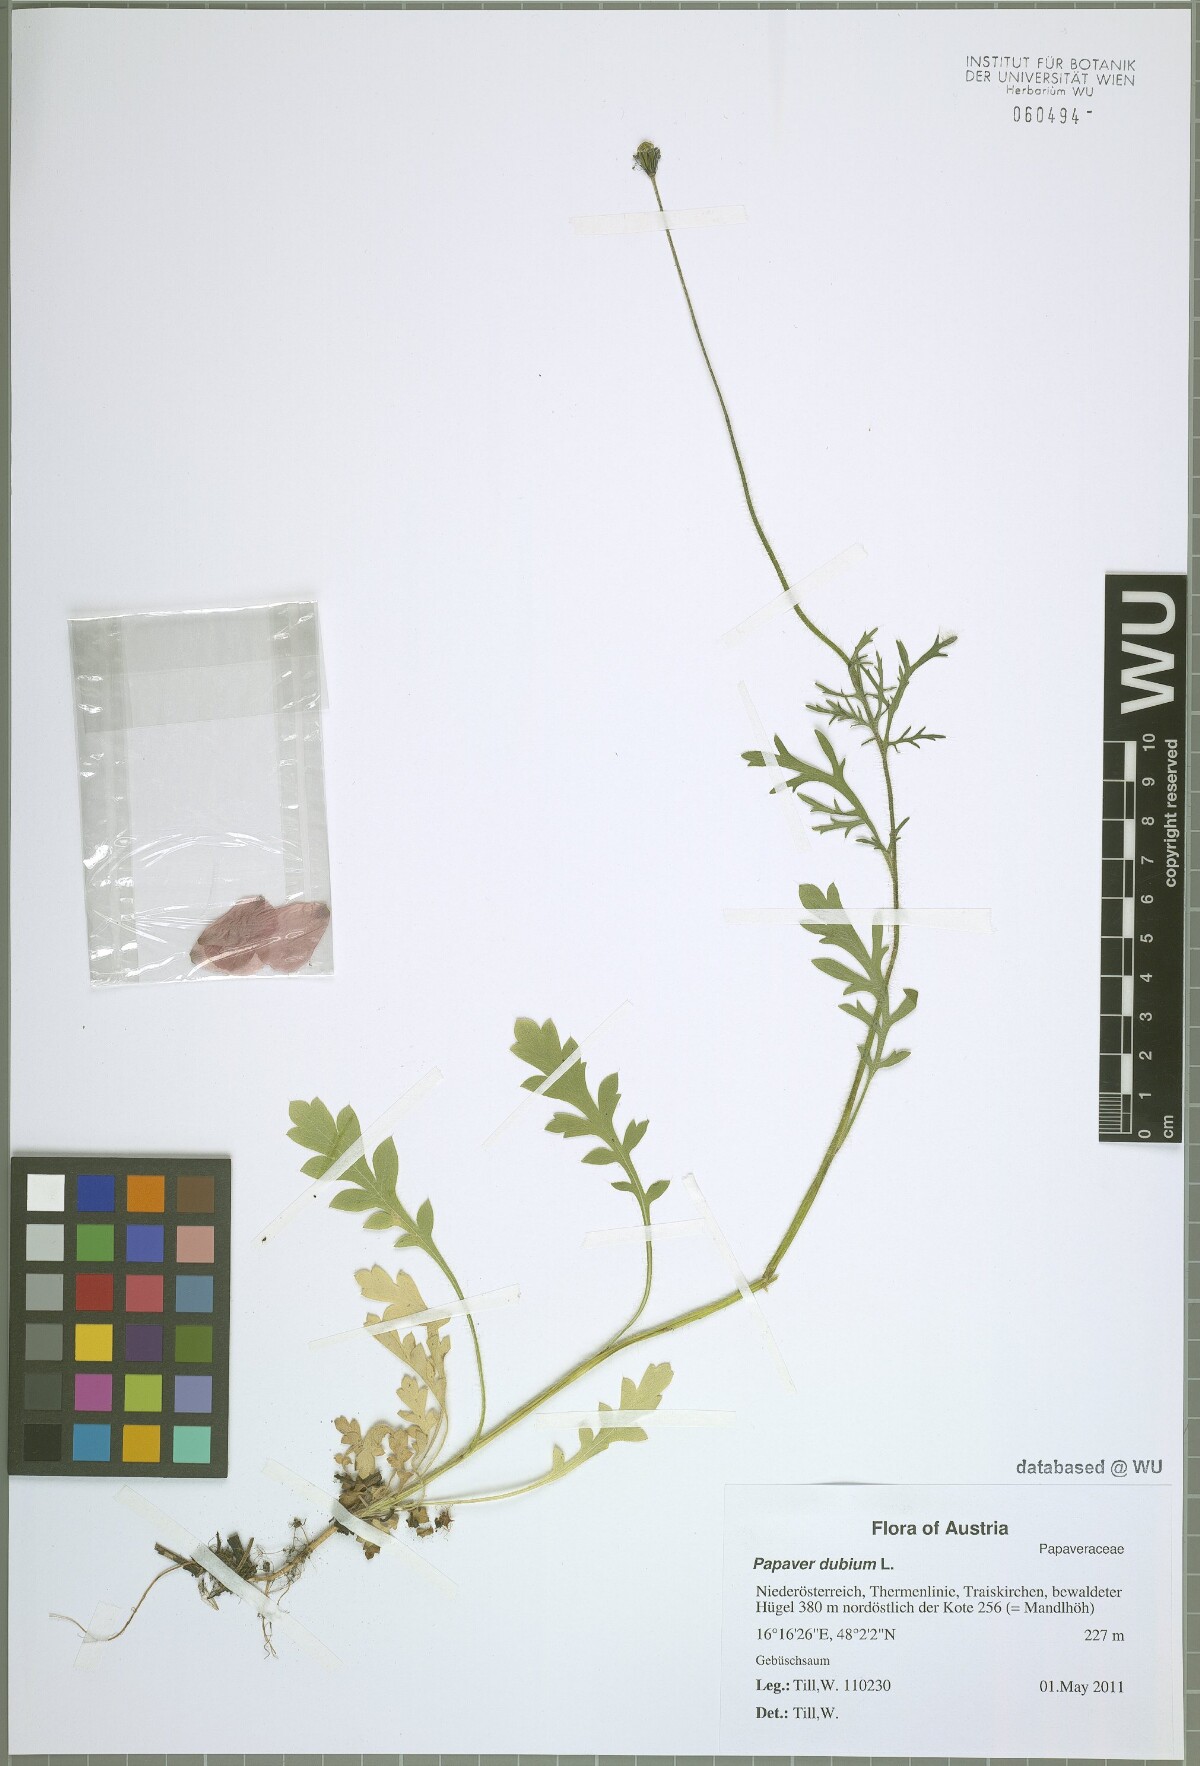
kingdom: Plantae
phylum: Tracheophyta
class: Magnoliopsida
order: Ranunculales
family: Papaveraceae
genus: Papaver
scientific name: Papaver dubium
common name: Long-headed poppy
